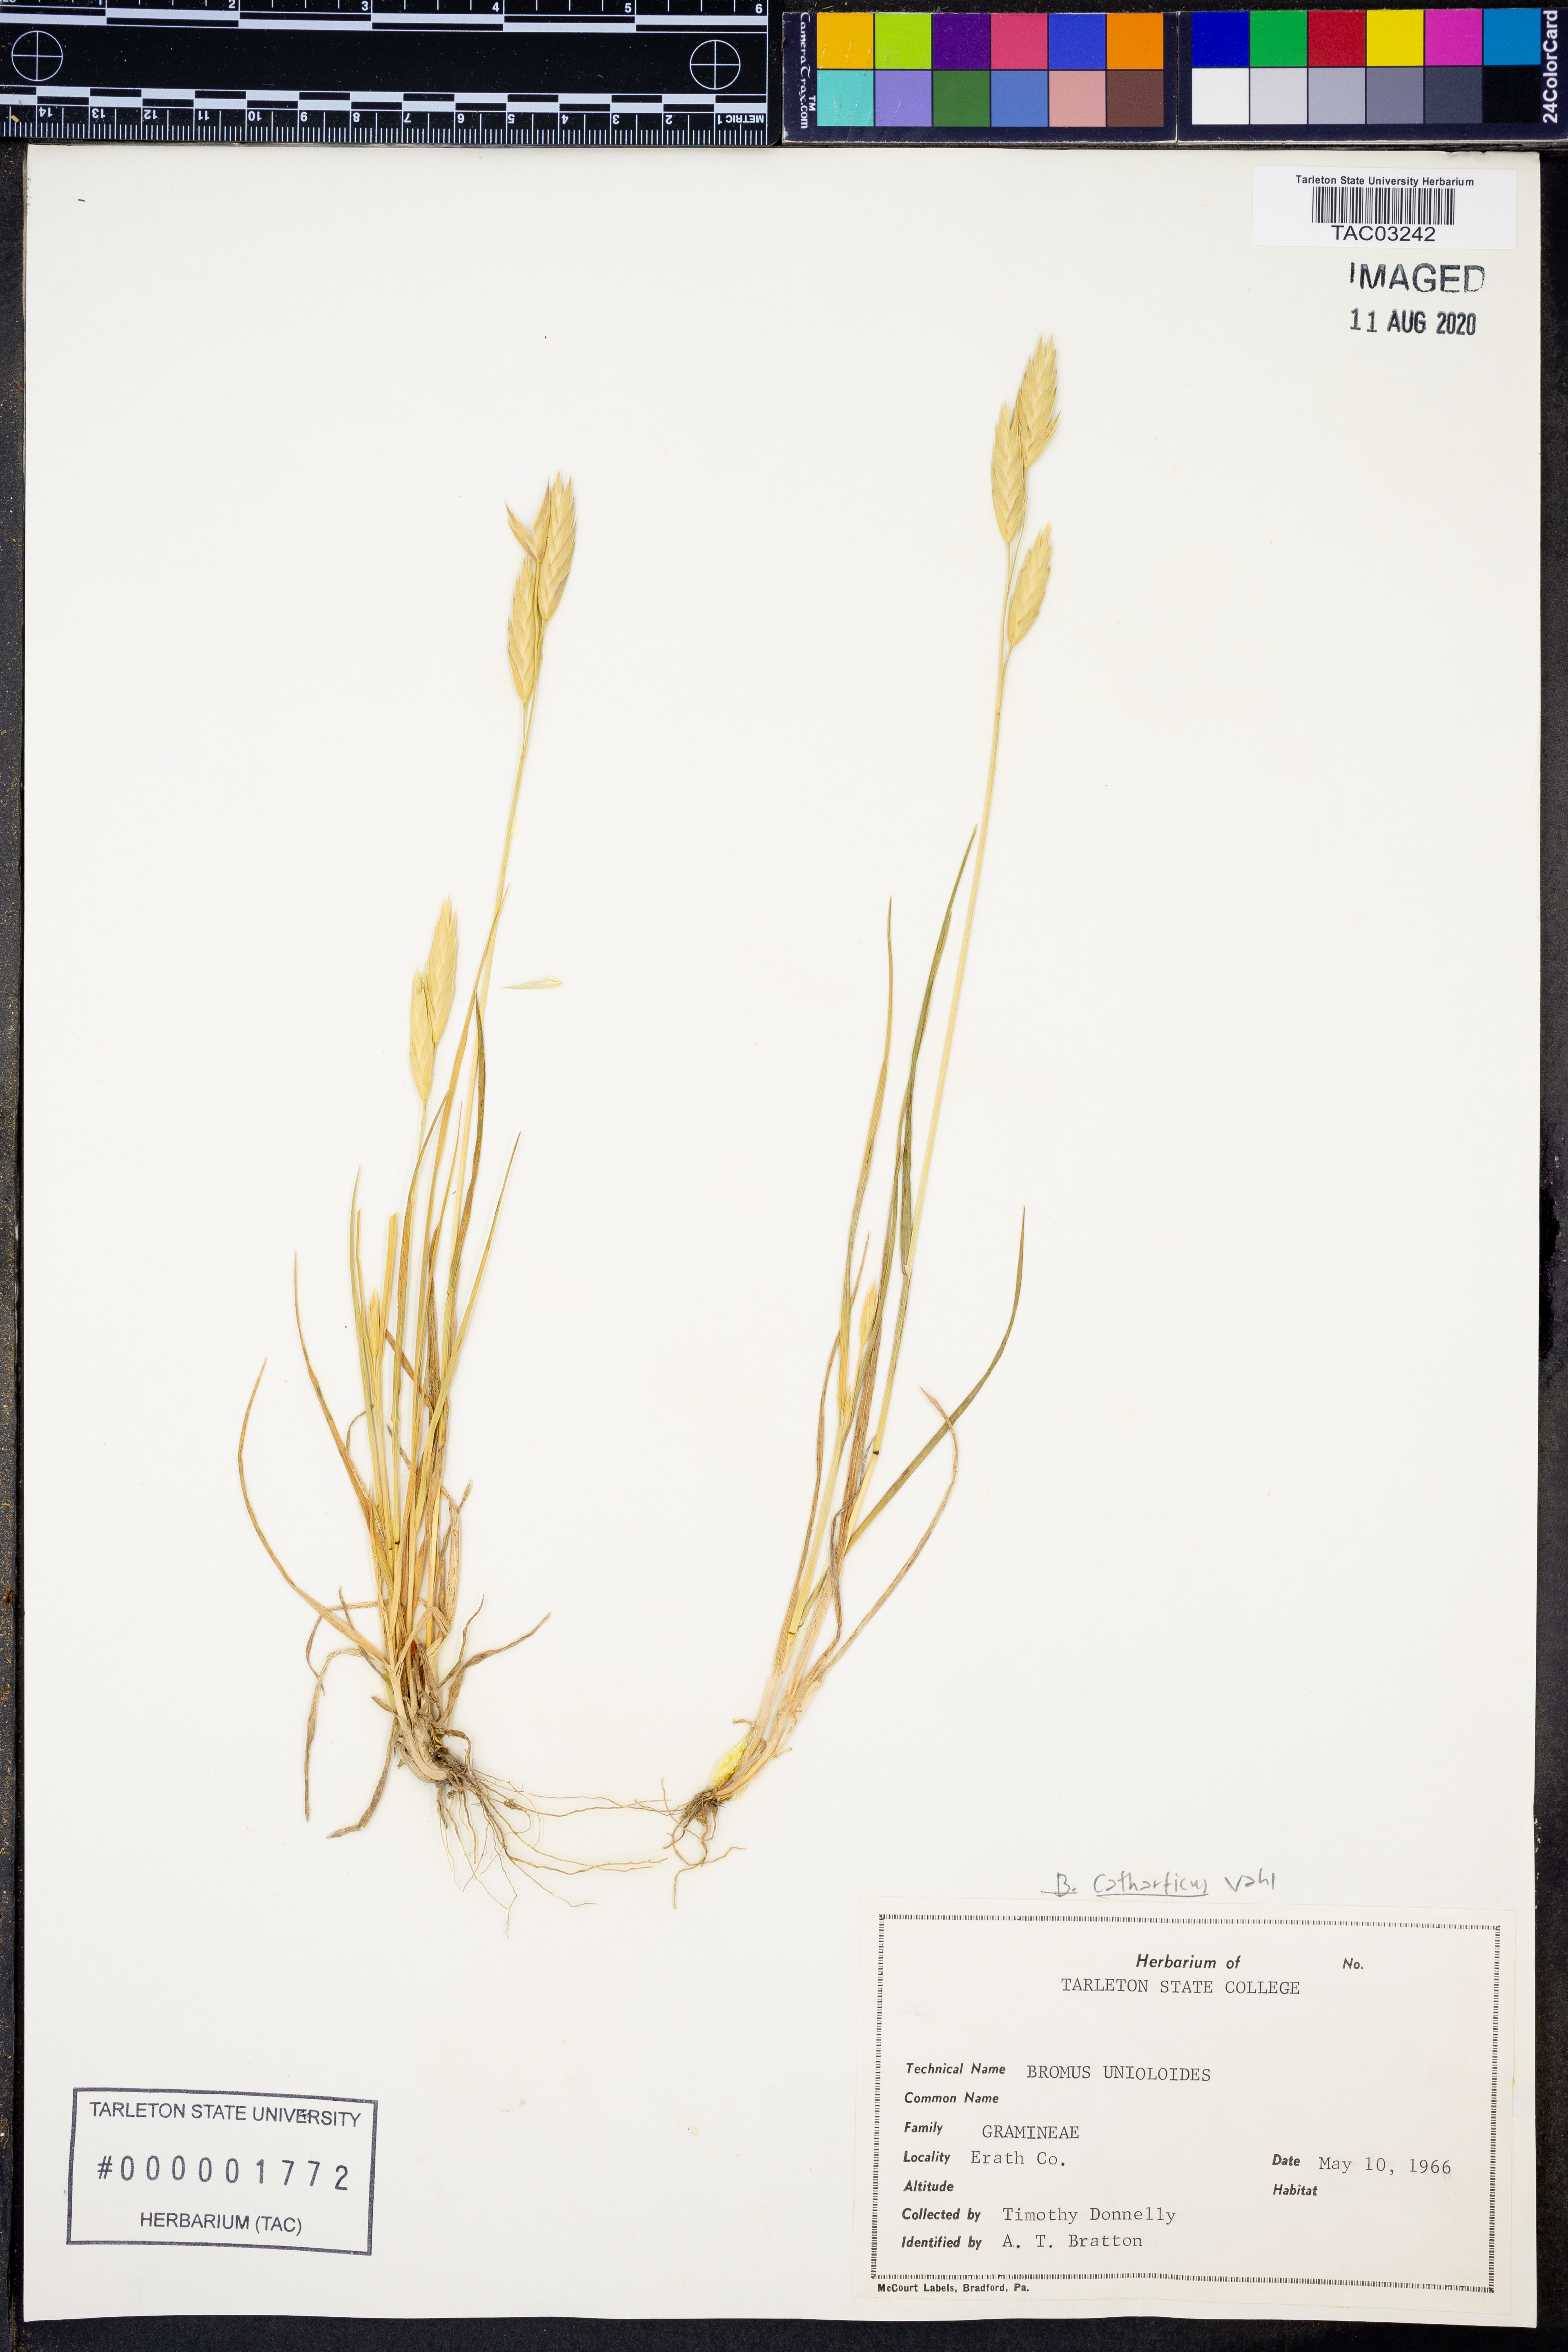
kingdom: Plantae
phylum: Tracheophyta
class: Liliopsida
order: Poales
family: Poaceae
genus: Bromus
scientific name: Bromus catharticus
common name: Rescuegrass
